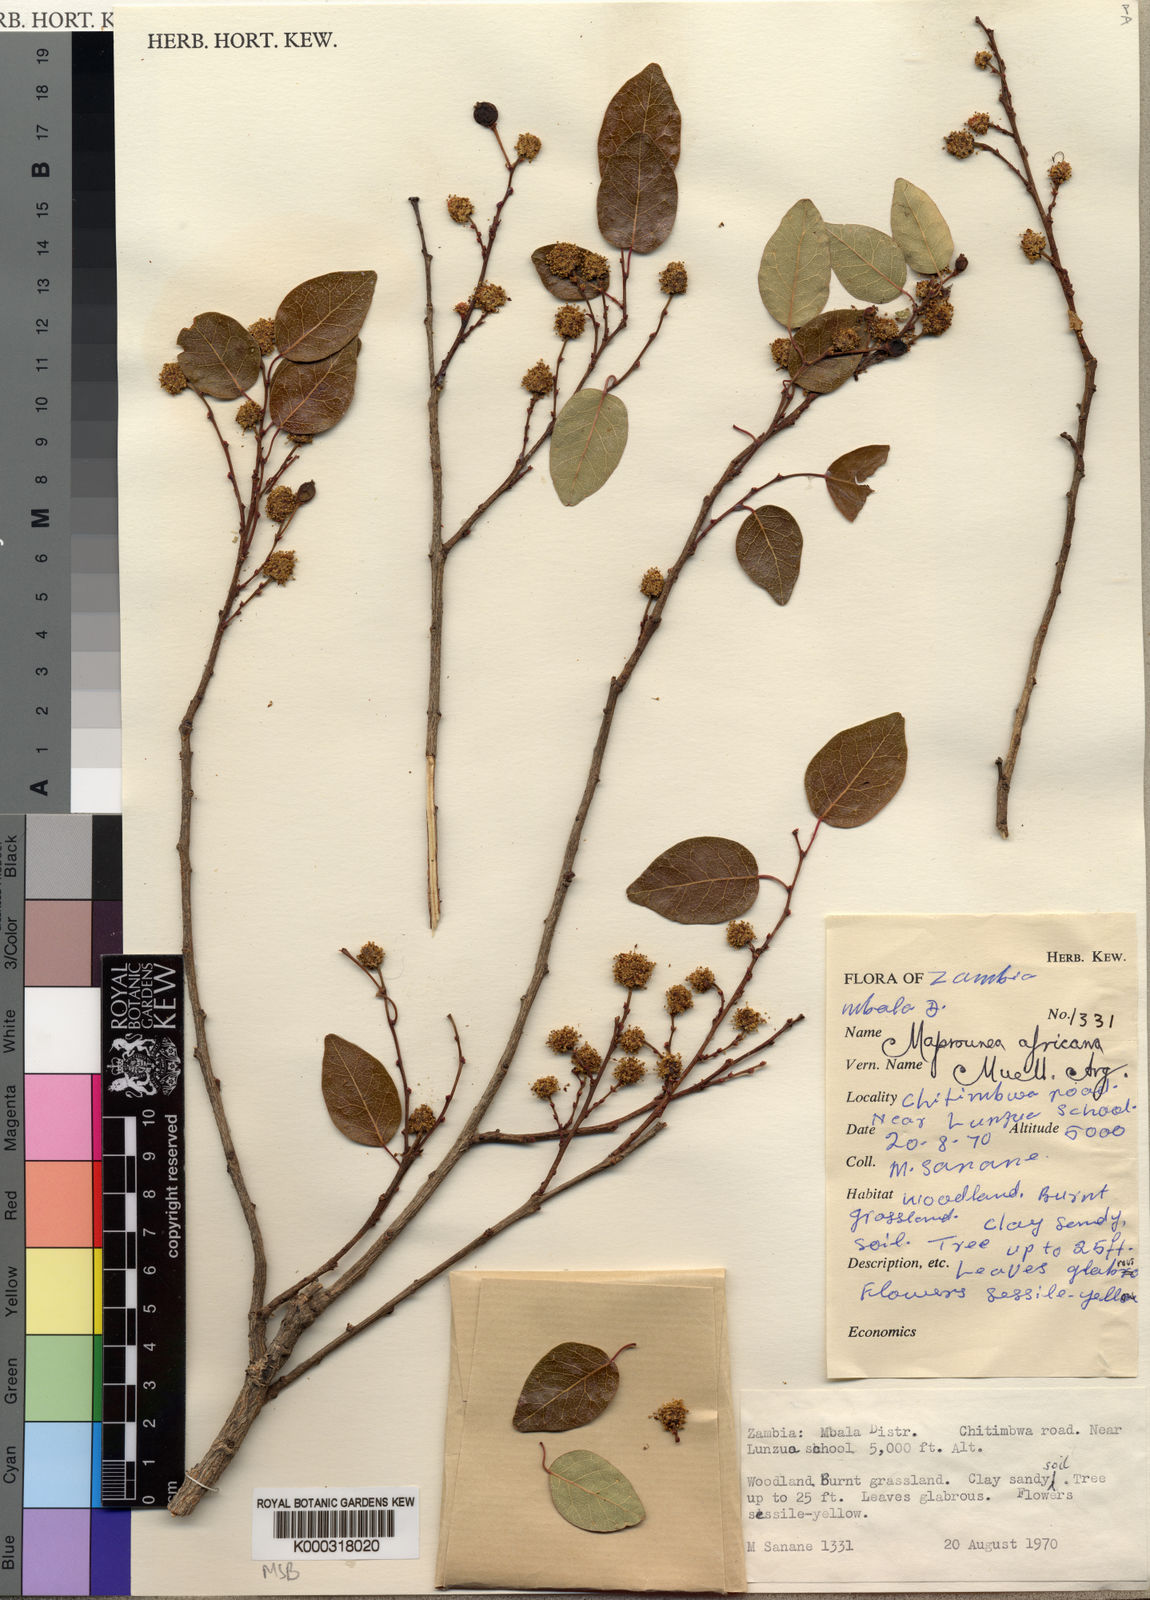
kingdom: Plantae
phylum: Tracheophyta
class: Magnoliopsida
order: Malpighiales
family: Euphorbiaceae
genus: Maprounea
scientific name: Maprounea
